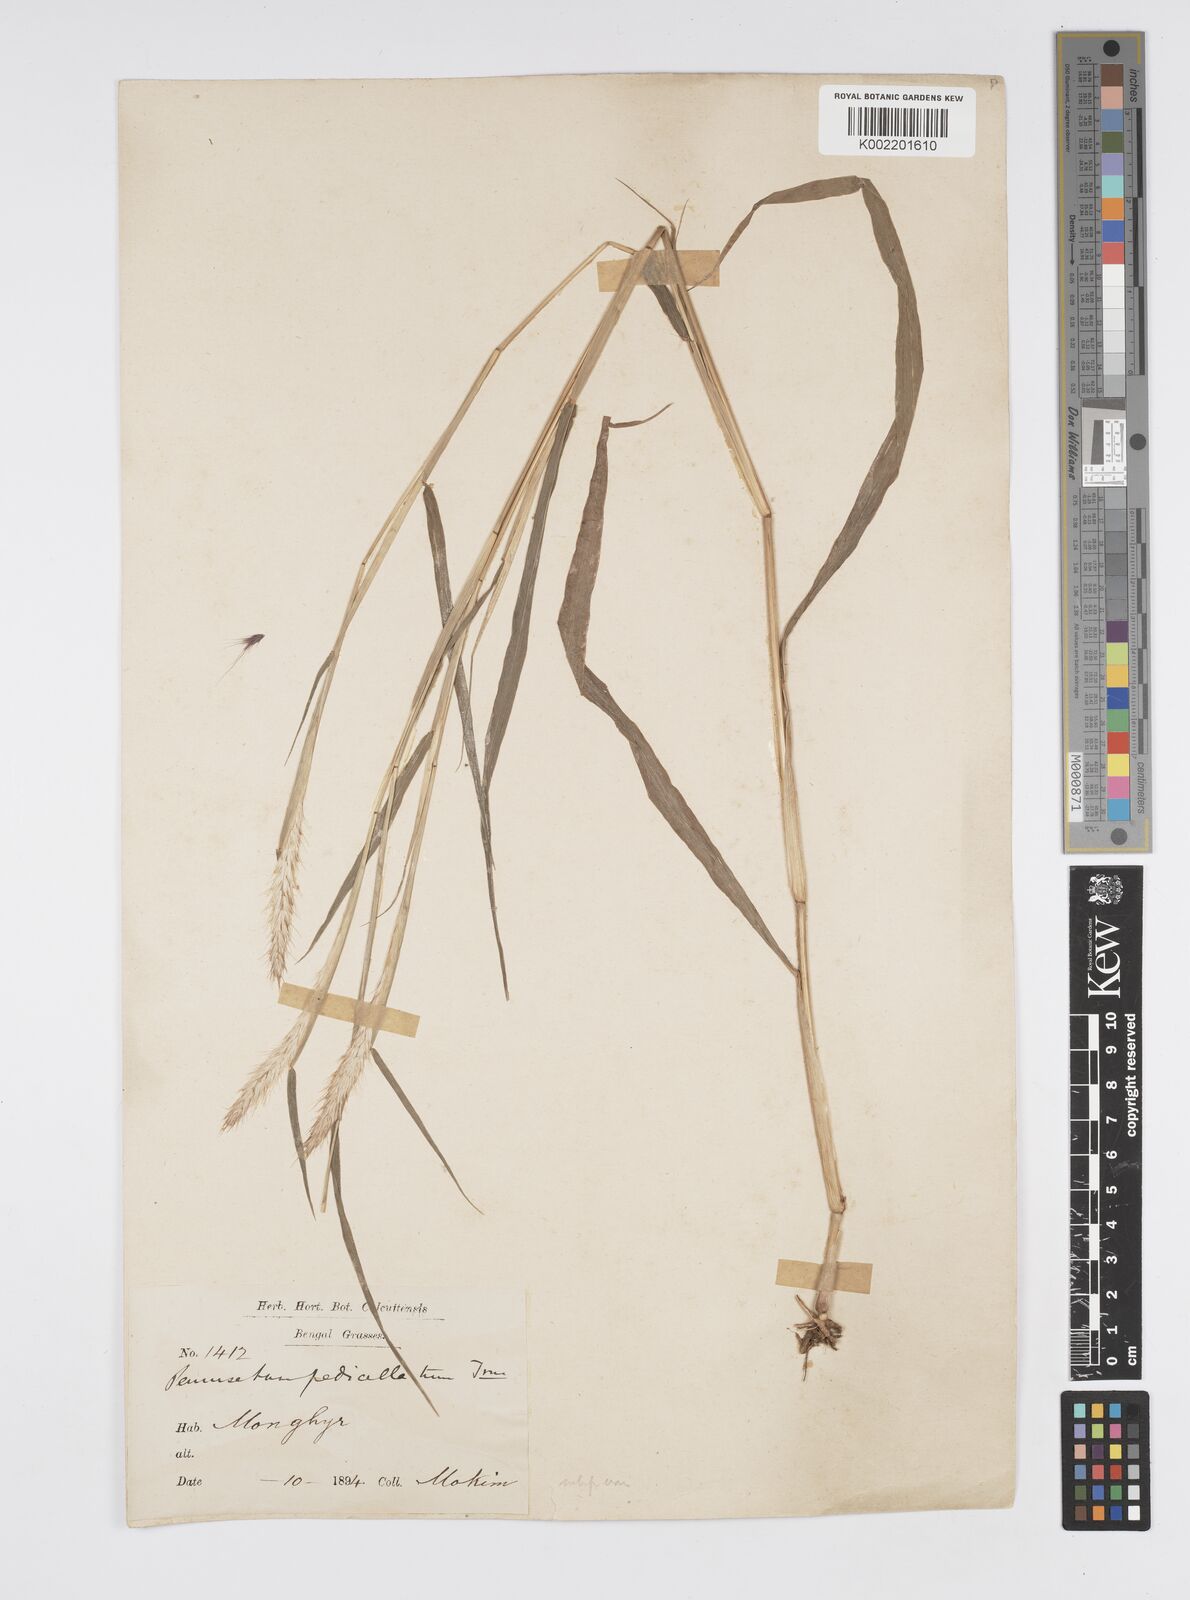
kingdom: Plantae
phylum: Tracheophyta
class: Liliopsida
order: Poales
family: Poaceae
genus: Cenchrus
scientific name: Cenchrus pedicellatus
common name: Hairy fountain grass
